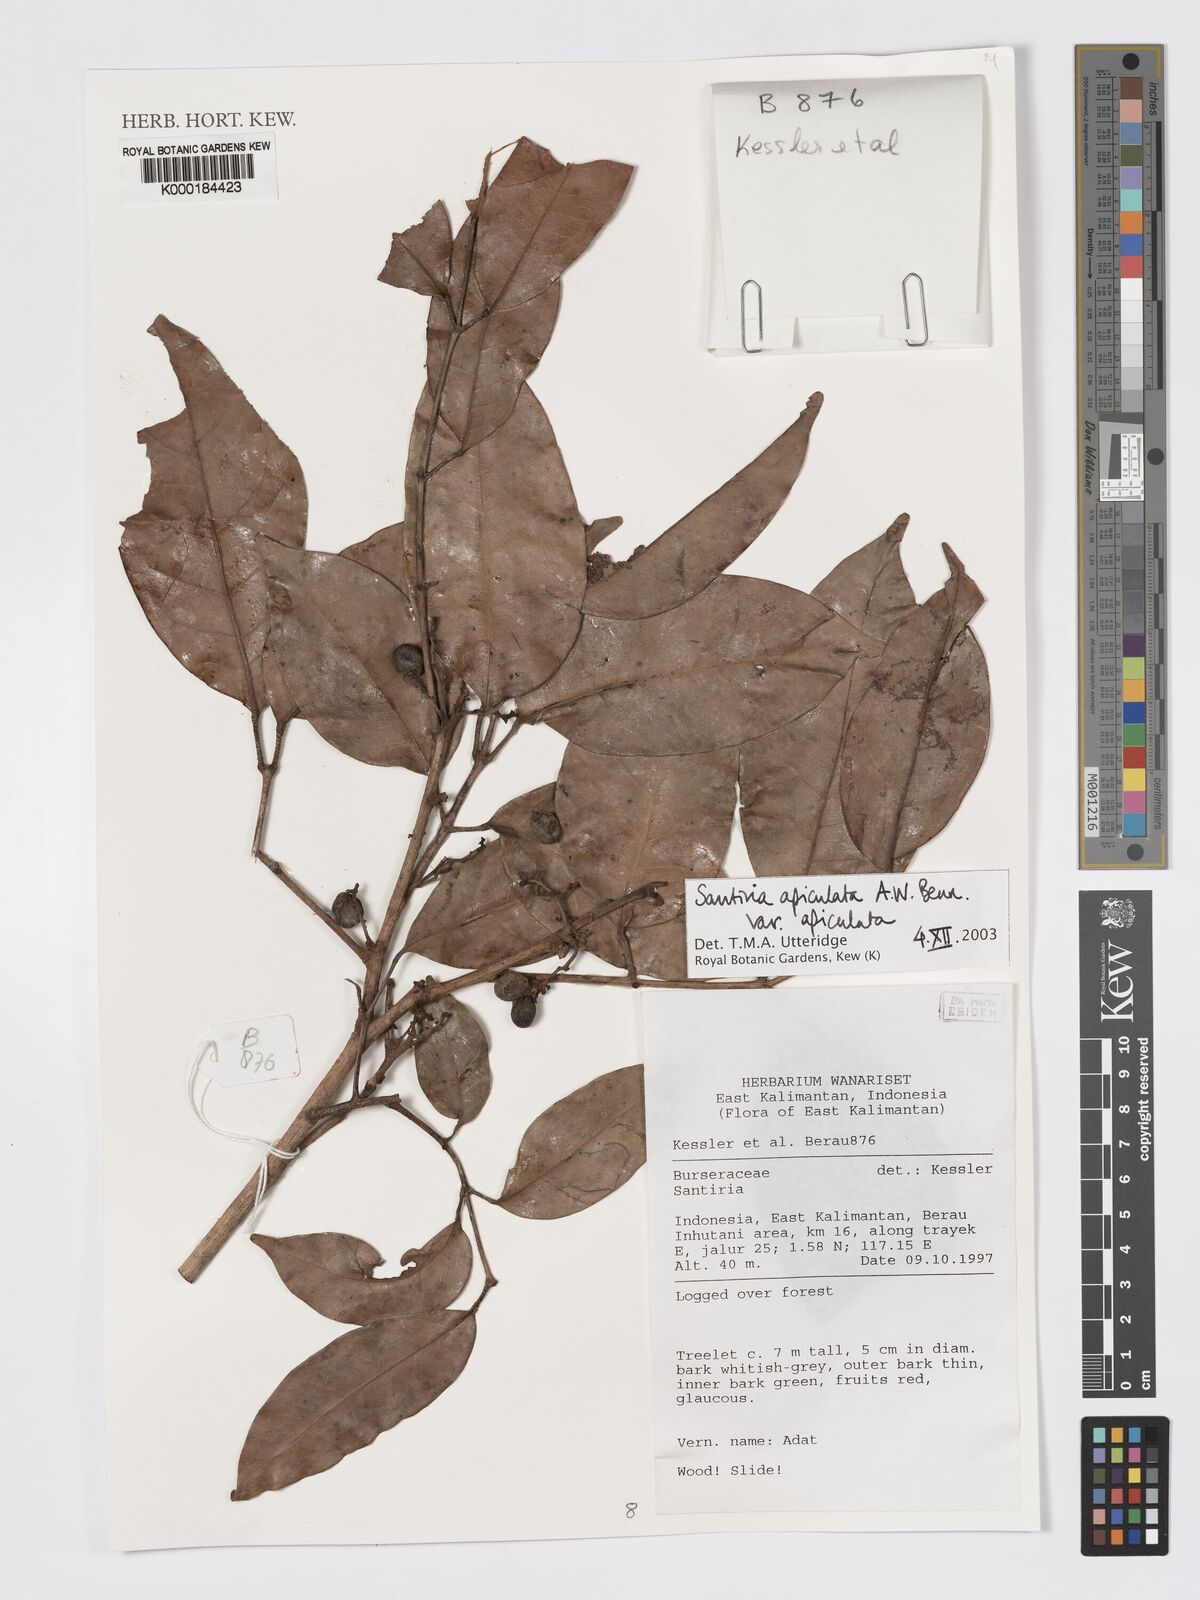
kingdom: Plantae
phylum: Tracheophyta
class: Magnoliopsida
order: Sapindales
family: Burseraceae
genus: Santiria
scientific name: Santiria apiculata
